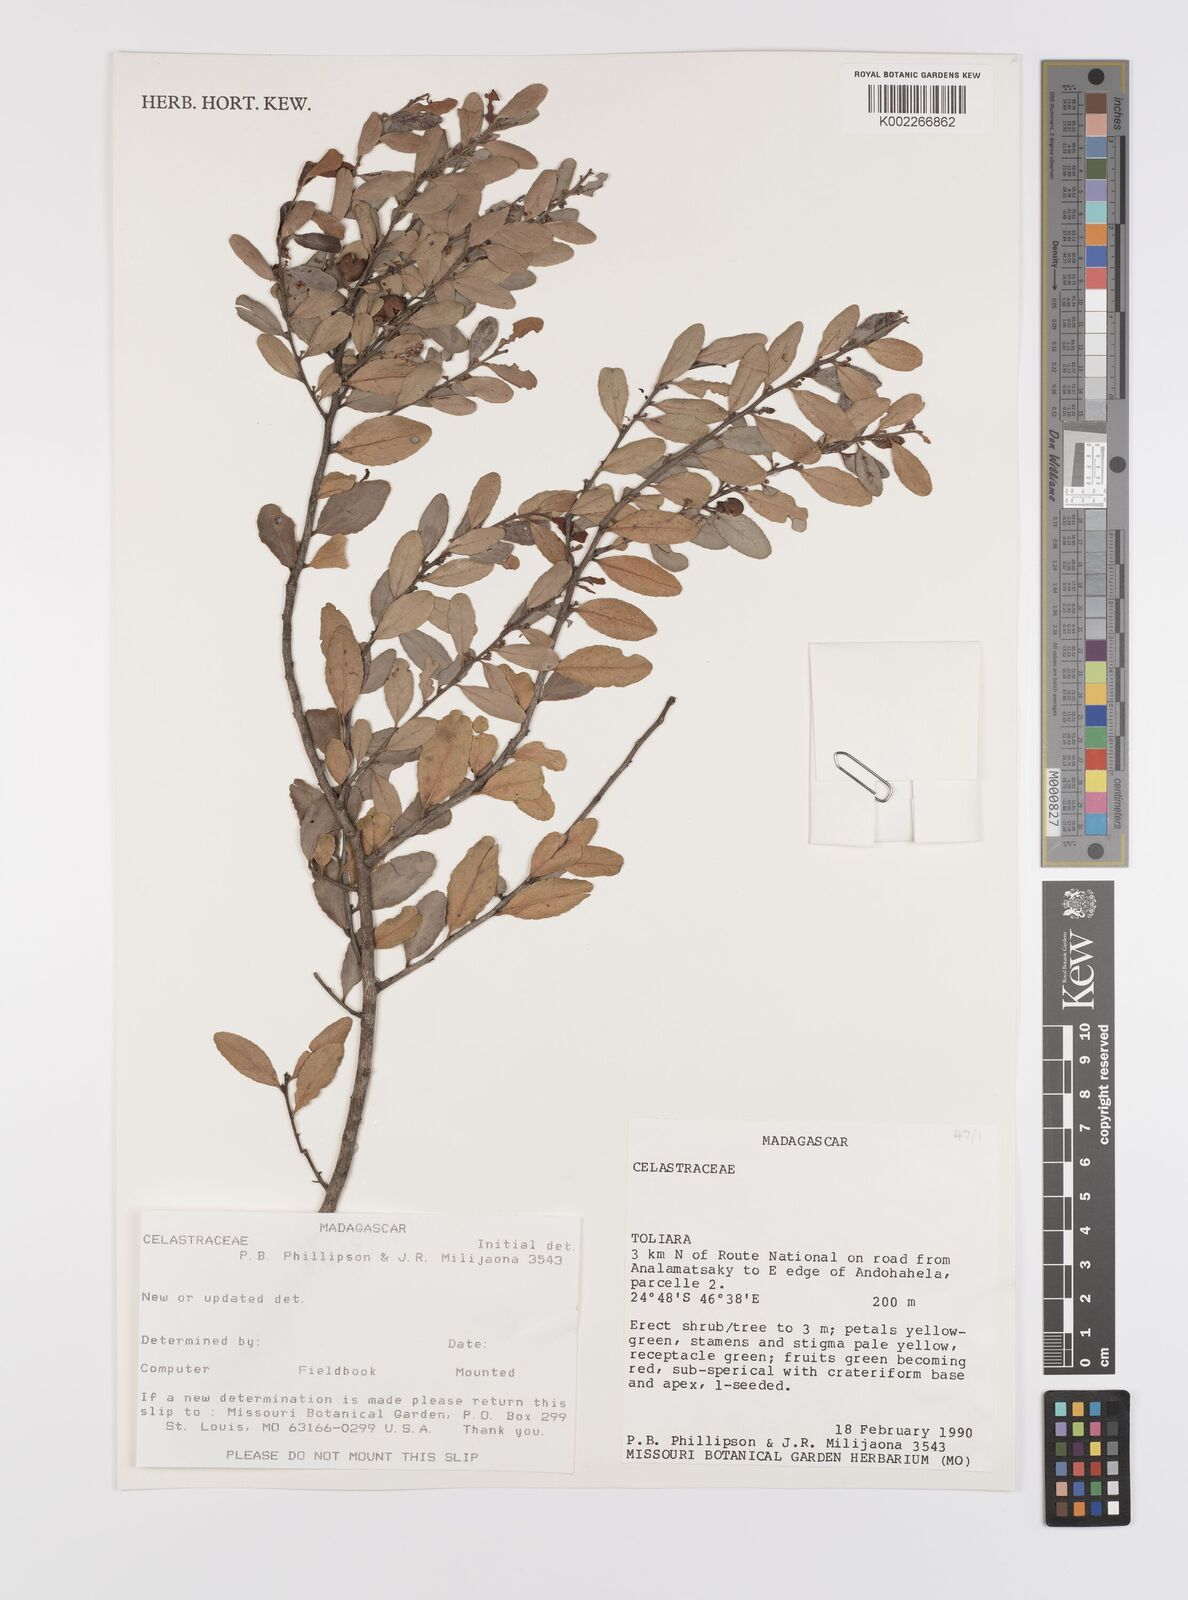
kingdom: Plantae
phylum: Tracheophyta
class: Magnoliopsida
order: Celastrales
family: Celastraceae
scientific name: Celastraceae
